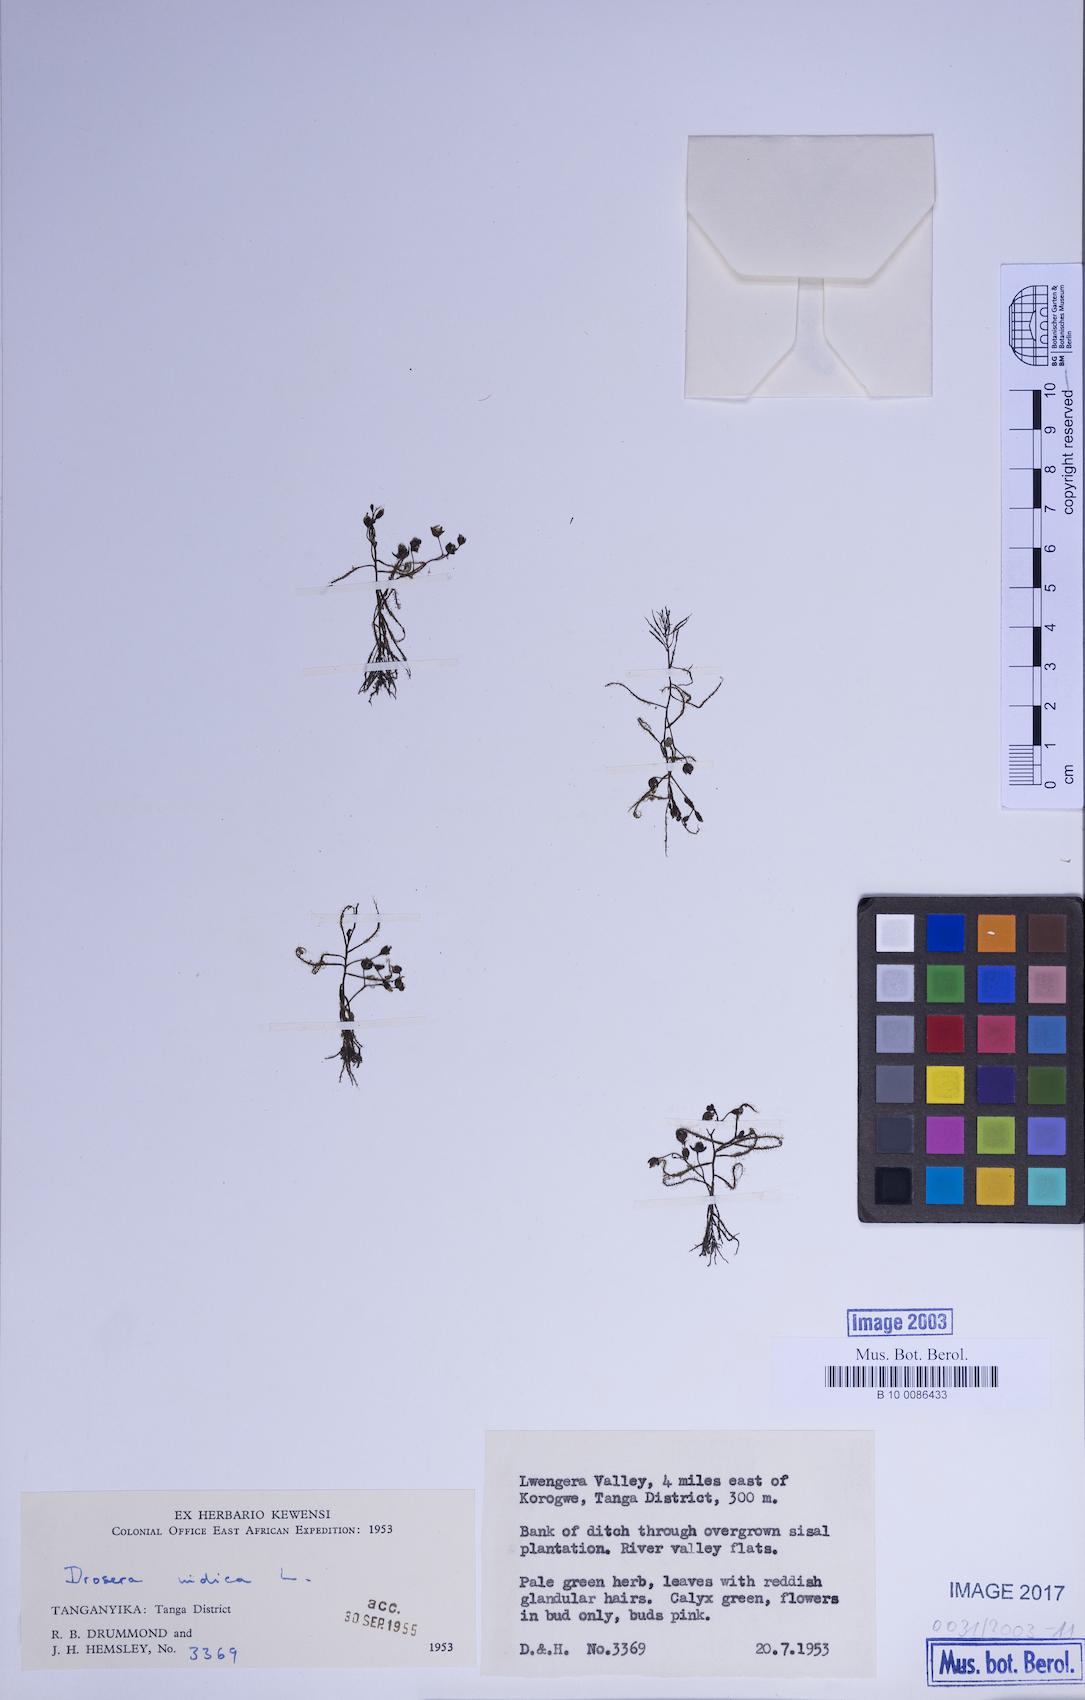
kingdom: Plantae
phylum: Tracheophyta
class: Magnoliopsida
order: Caryophyllales
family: Droseraceae
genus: Drosera
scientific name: Drosera indica
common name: Indian sundew
